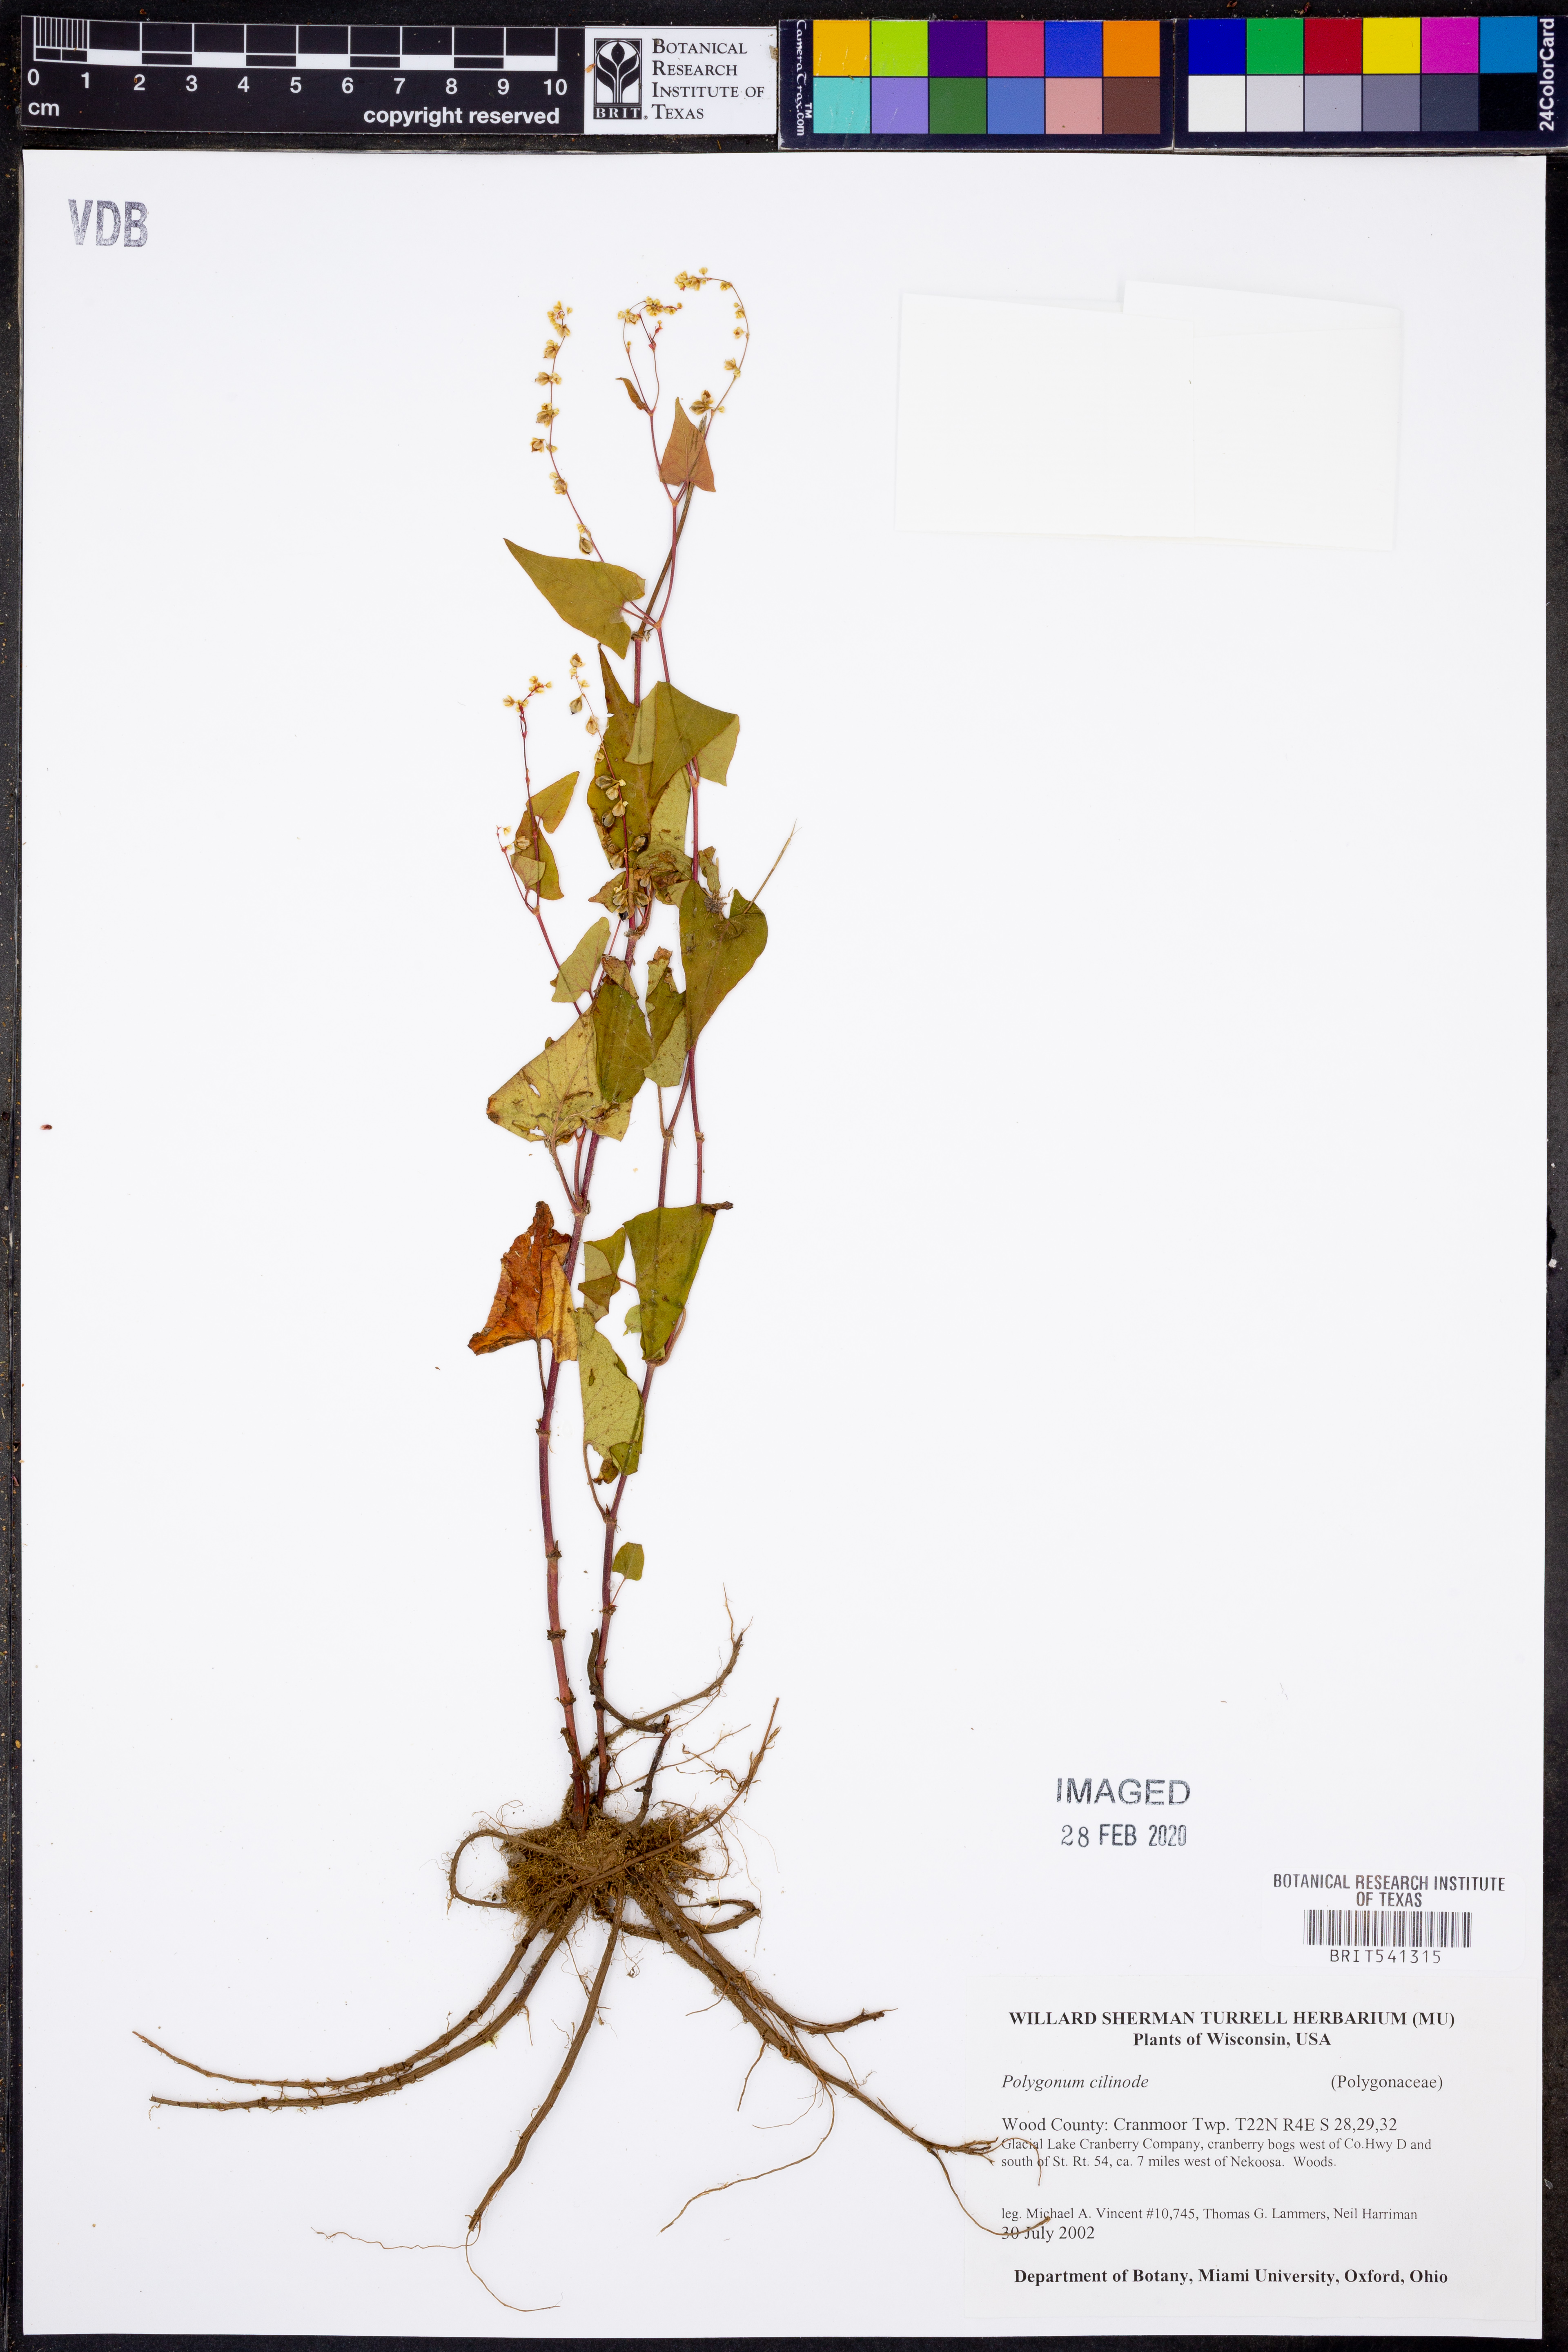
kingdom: Plantae
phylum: Tracheophyta
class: Magnoliopsida
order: Caryophyllales
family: Polygonaceae
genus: Parogonum
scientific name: Parogonum ciliinode
